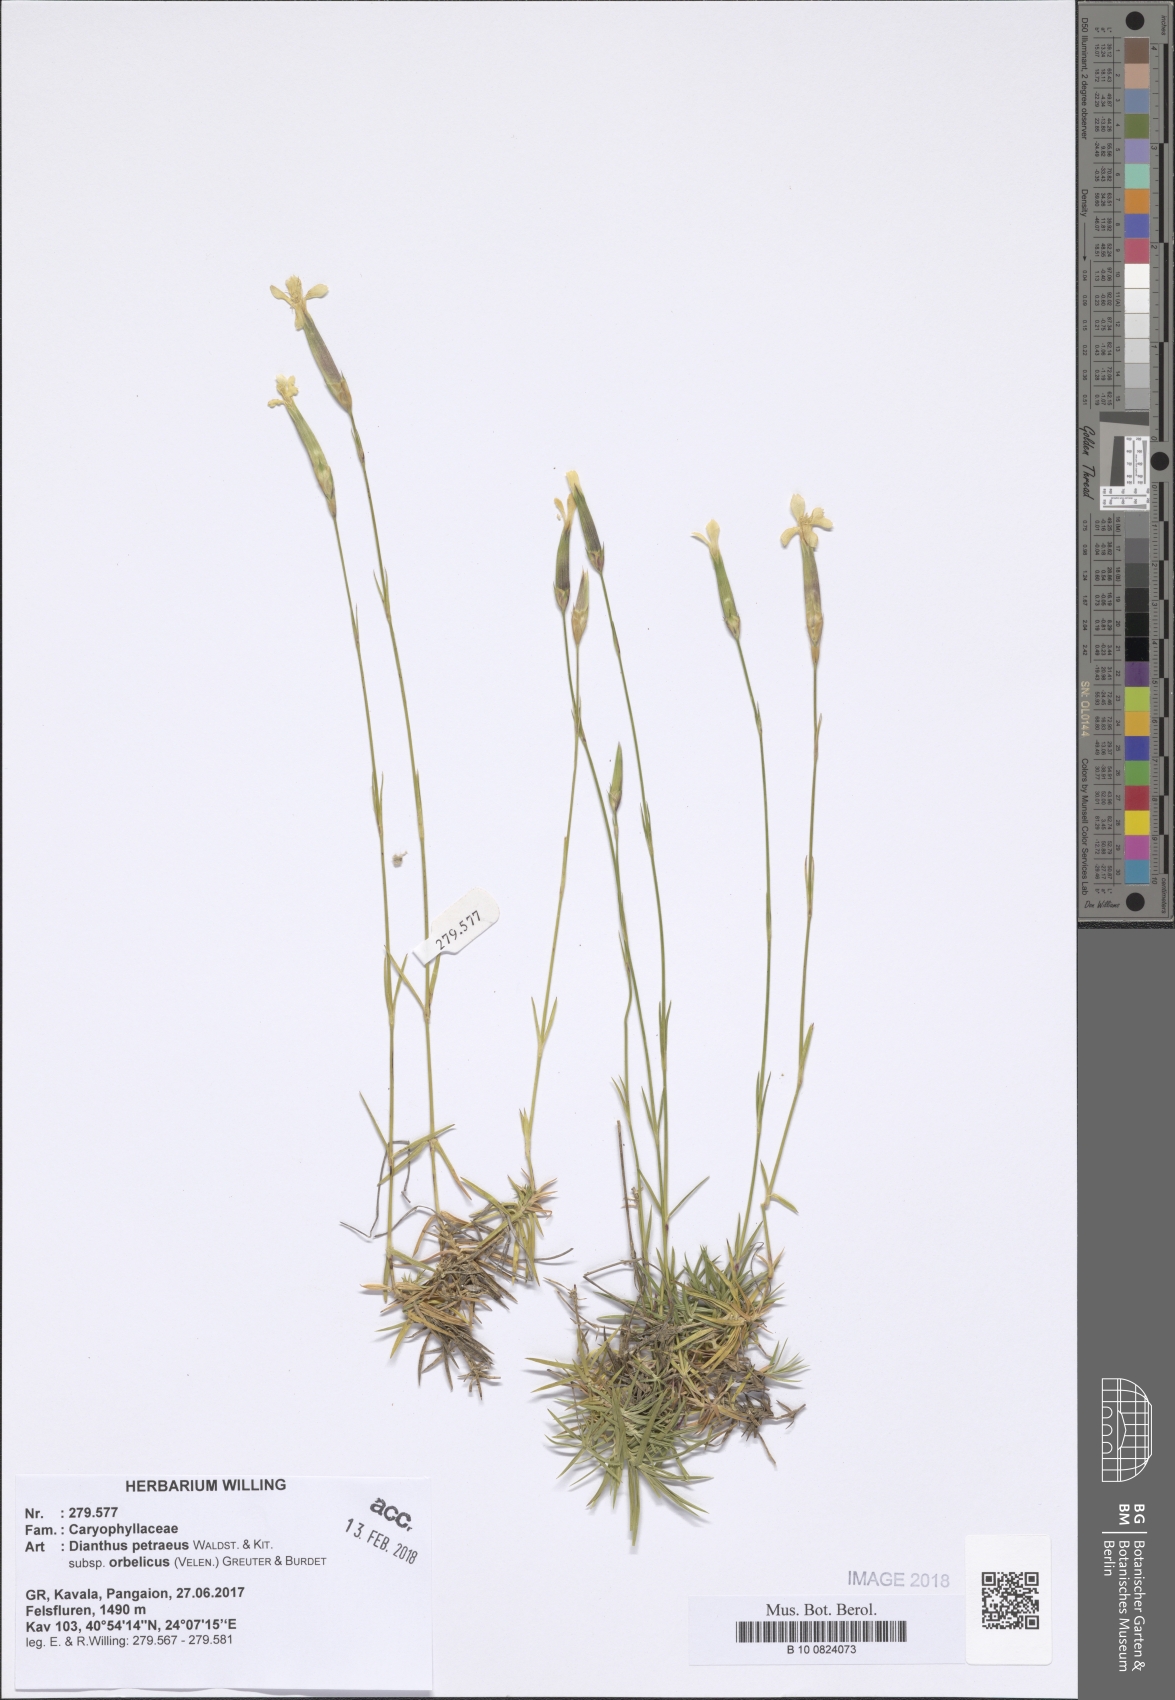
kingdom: Plantae
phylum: Tracheophyta
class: Magnoliopsida
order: Caryophyllales
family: Caryophyllaceae
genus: Dianthus
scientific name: Dianthus petraeus
